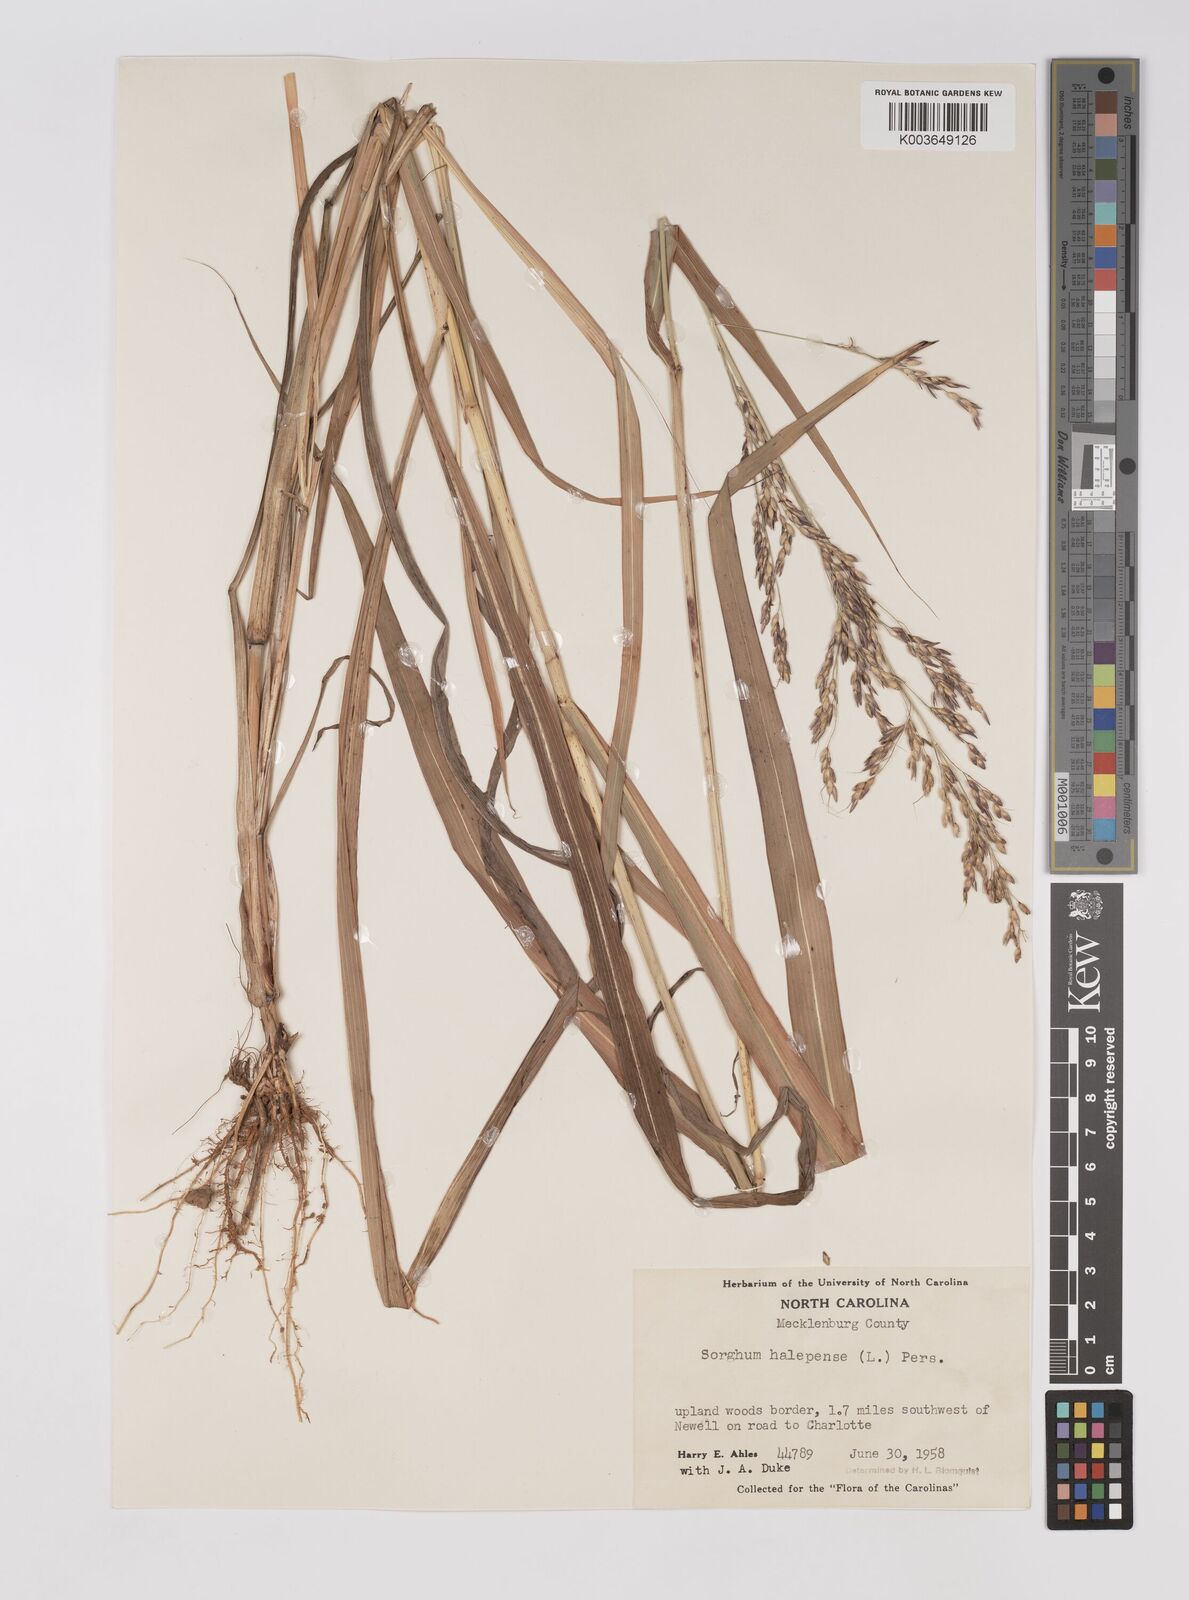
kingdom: Plantae
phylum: Tracheophyta
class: Liliopsida
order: Poales
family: Poaceae
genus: Sorghum
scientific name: Sorghum halepense
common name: Johnson-grass
